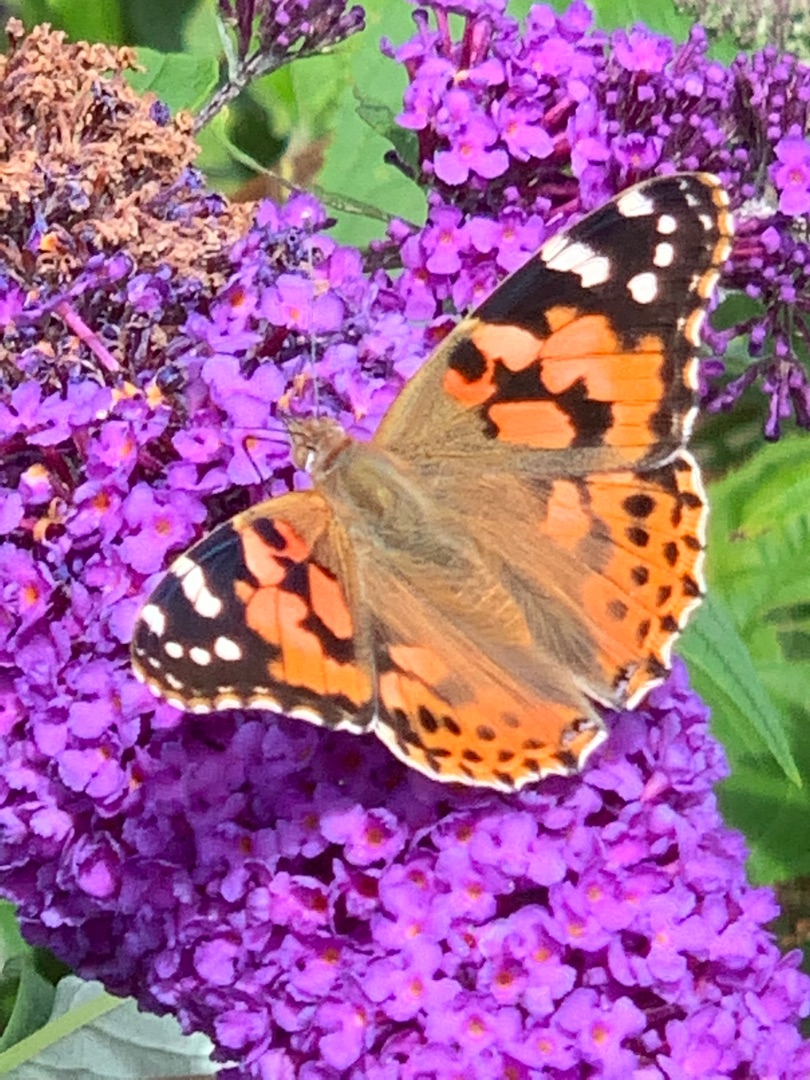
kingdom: Animalia
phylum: Arthropoda
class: Insecta
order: Lepidoptera
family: Nymphalidae
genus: Vanessa
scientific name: Vanessa cardui
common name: Tidselsommerfugl
